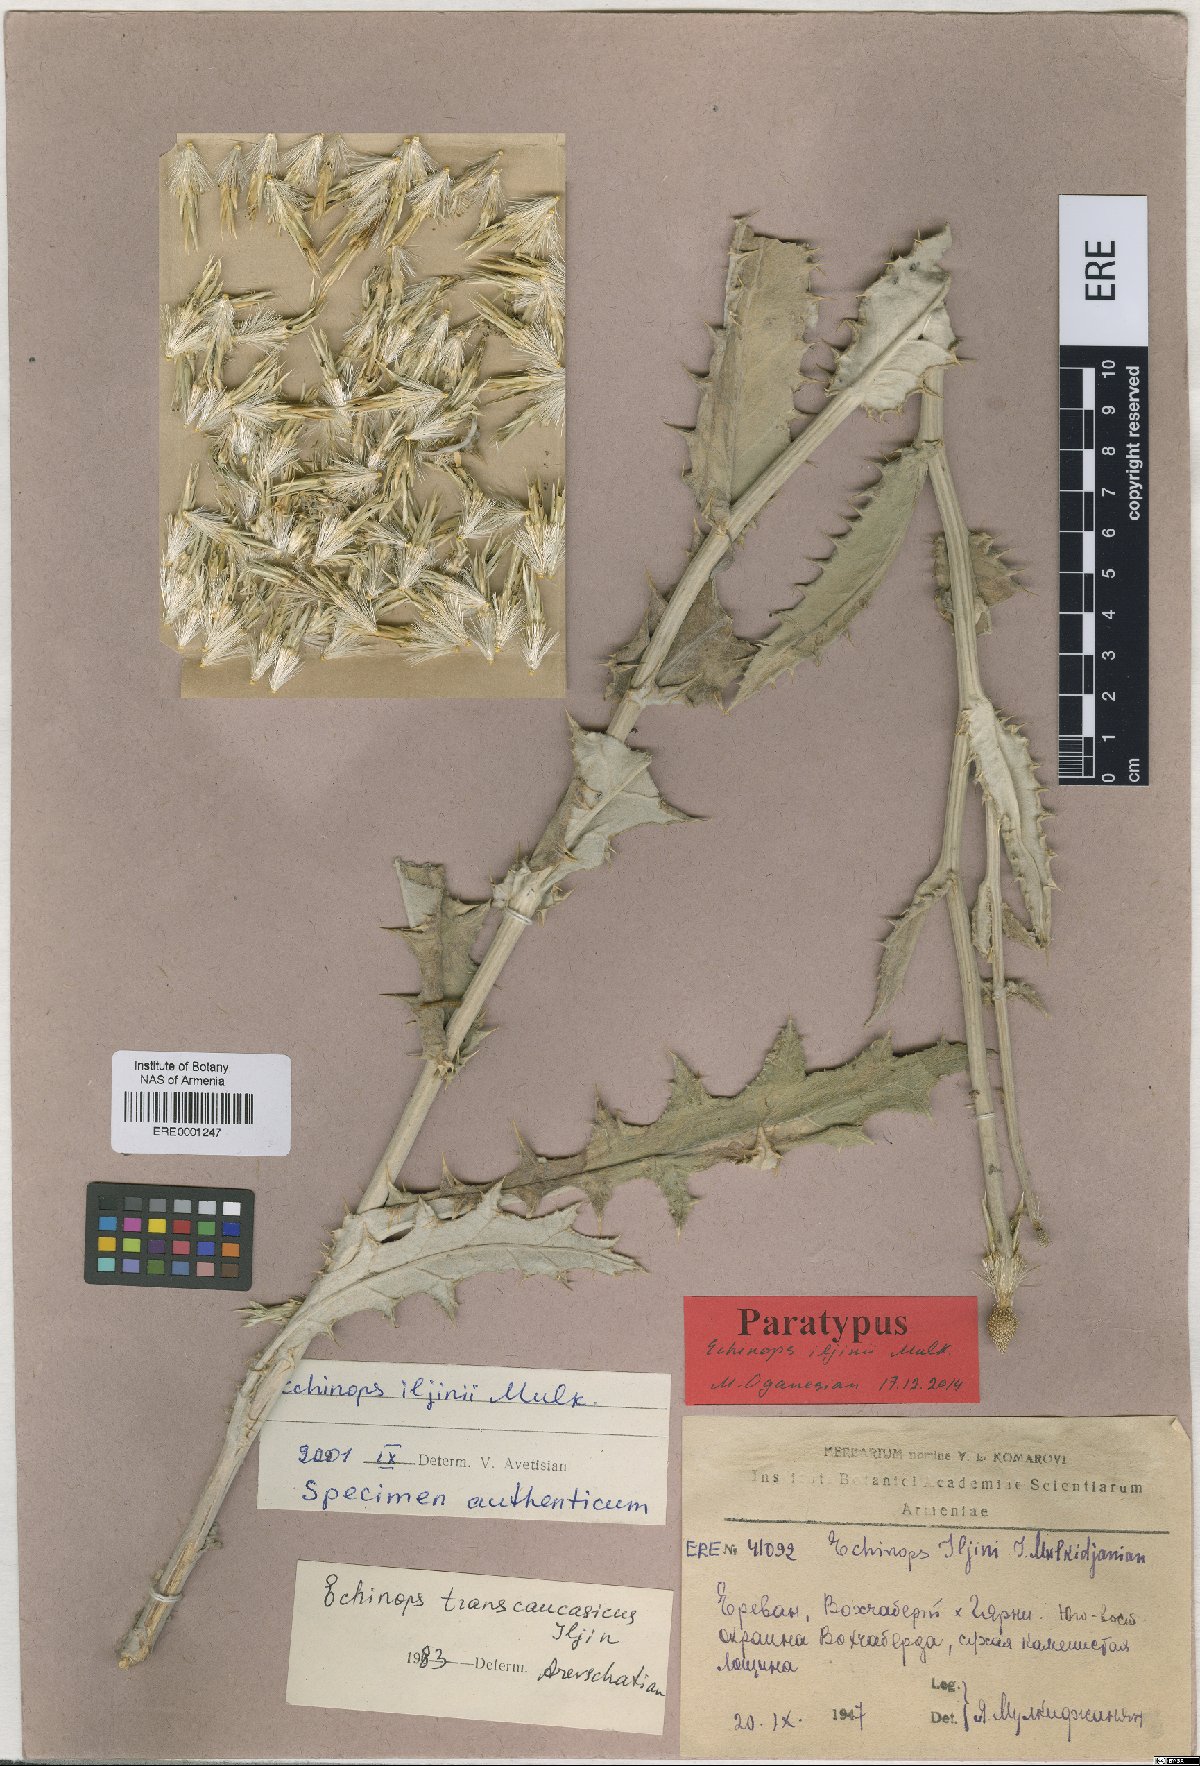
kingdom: Plantae
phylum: Tracheophyta
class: Magnoliopsida
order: Asterales
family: Asteraceae
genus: Echinops
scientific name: Echinops transcaucasicus
